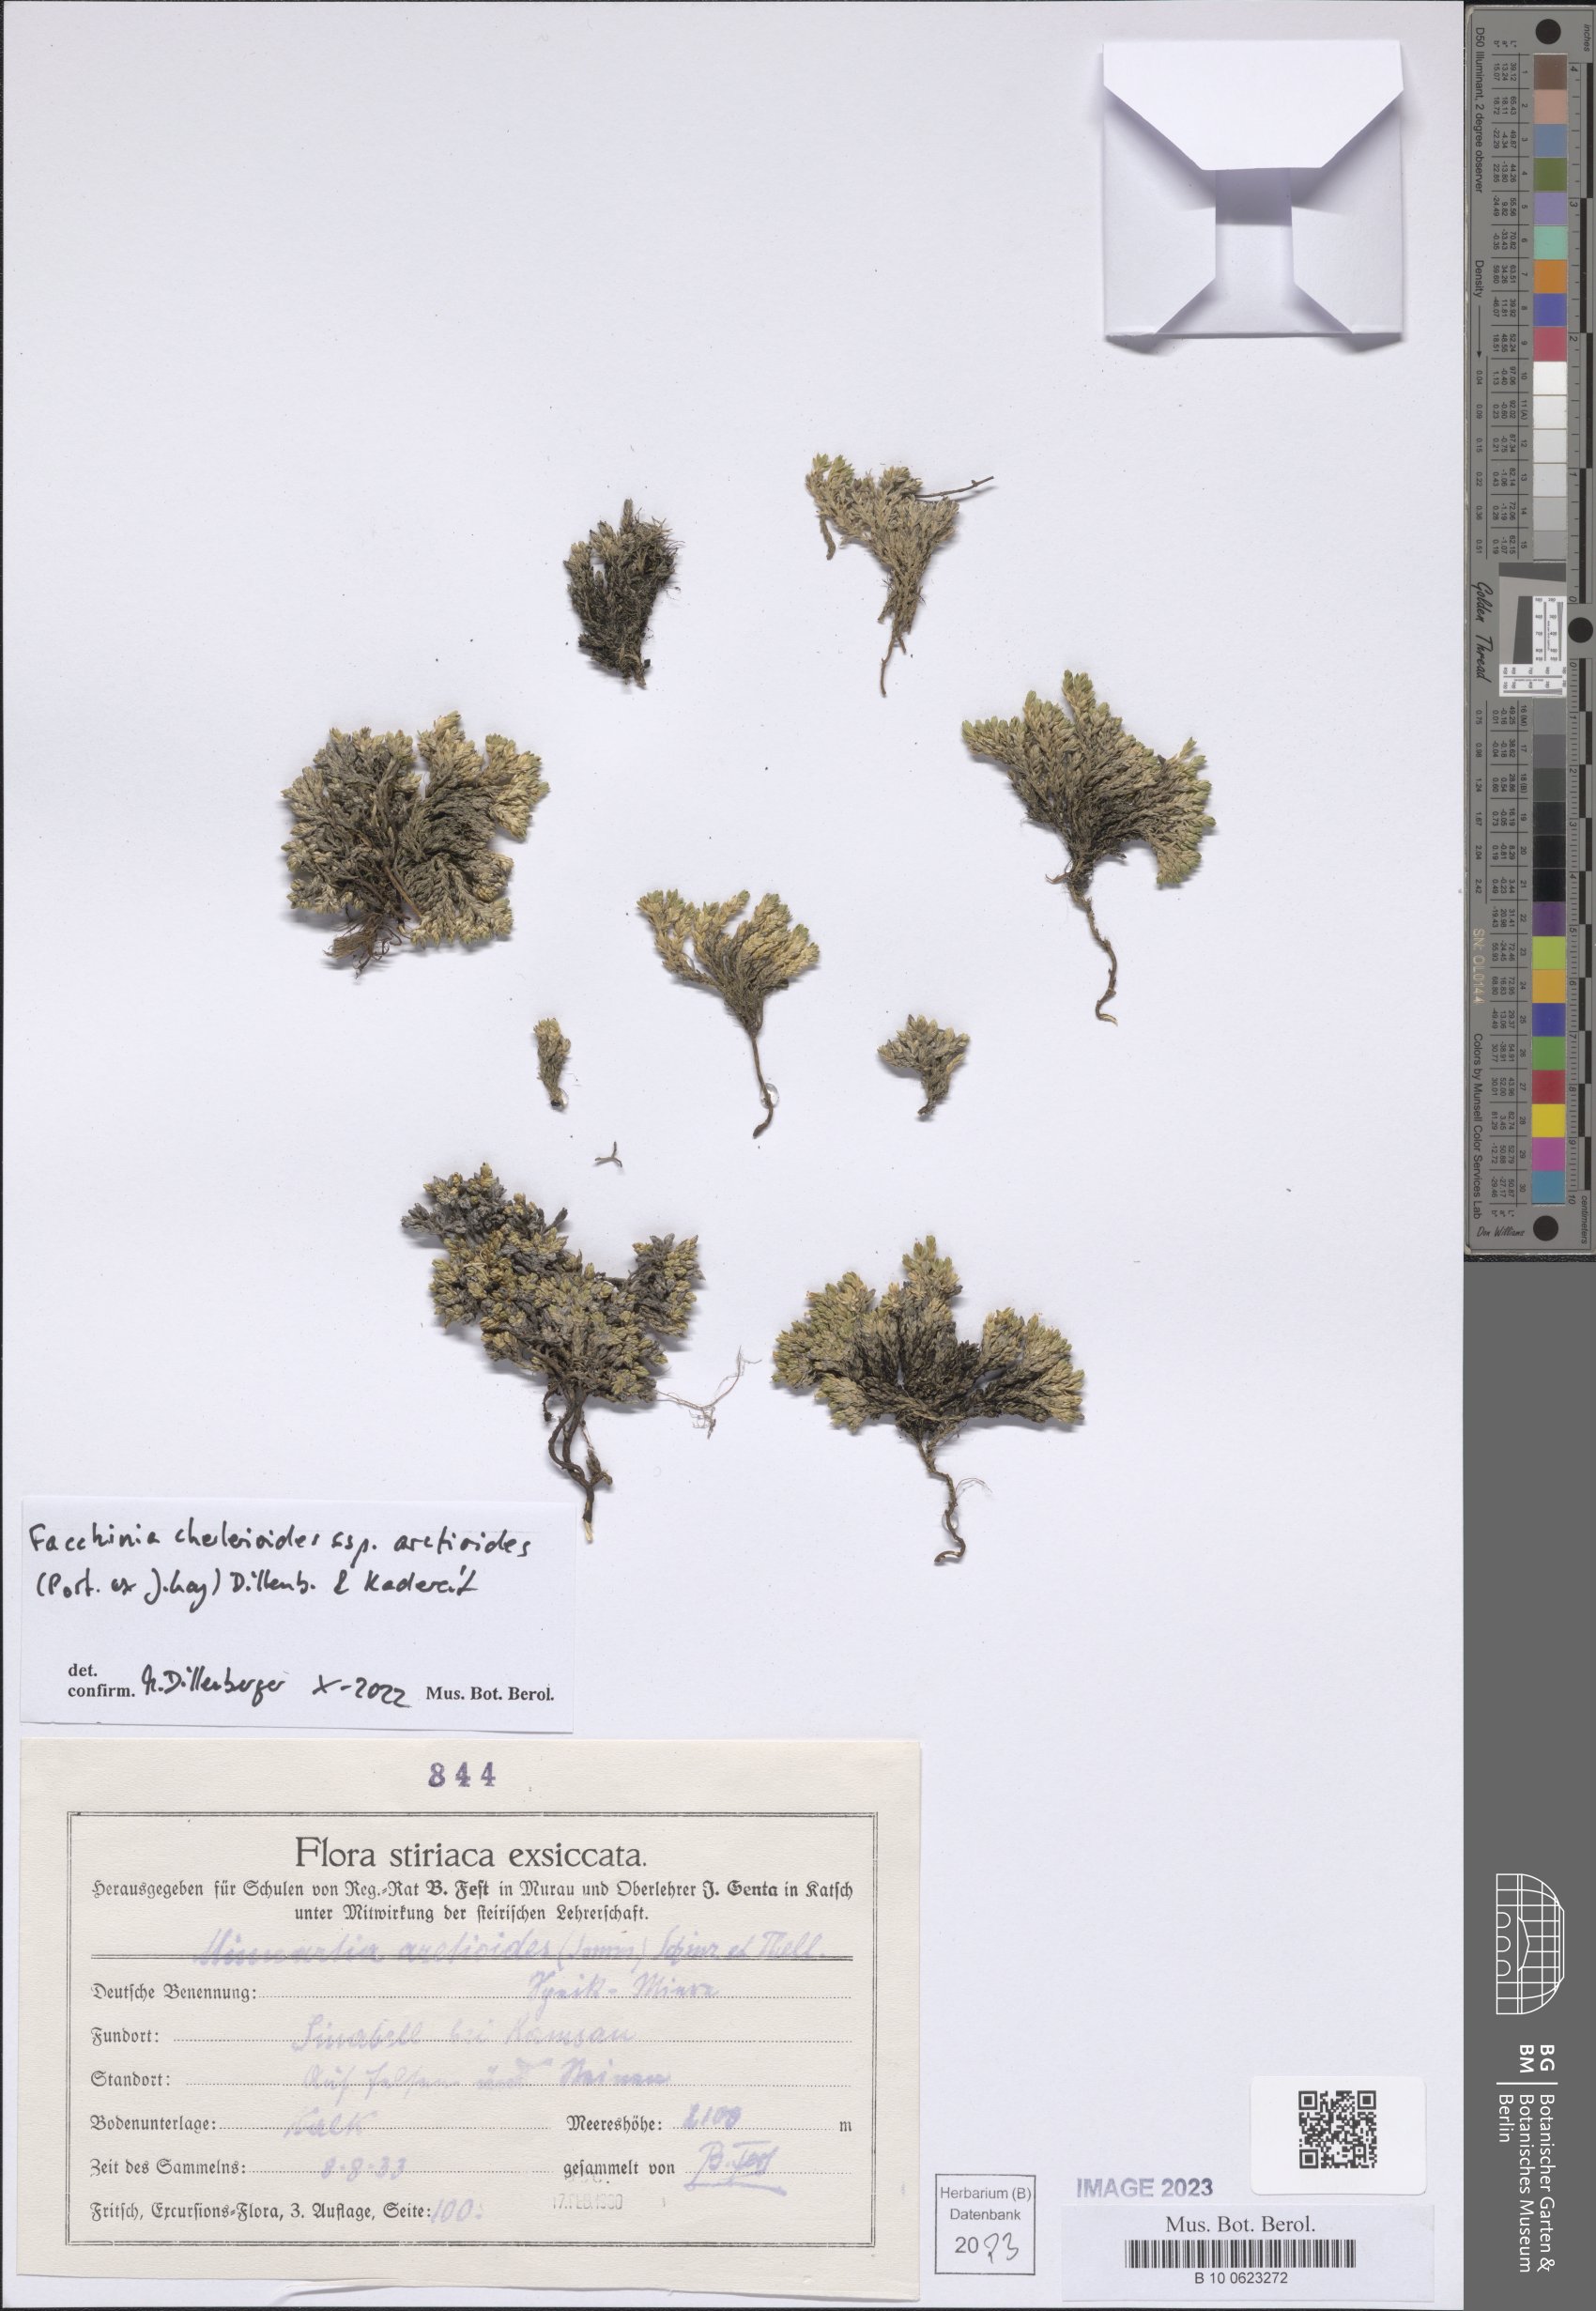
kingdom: Plantae
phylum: Tracheophyta
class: Magnoliopsida
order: Caryophyllales
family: Caryophyllaceae
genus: Facchinia
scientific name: Facchinia cherlerioides
